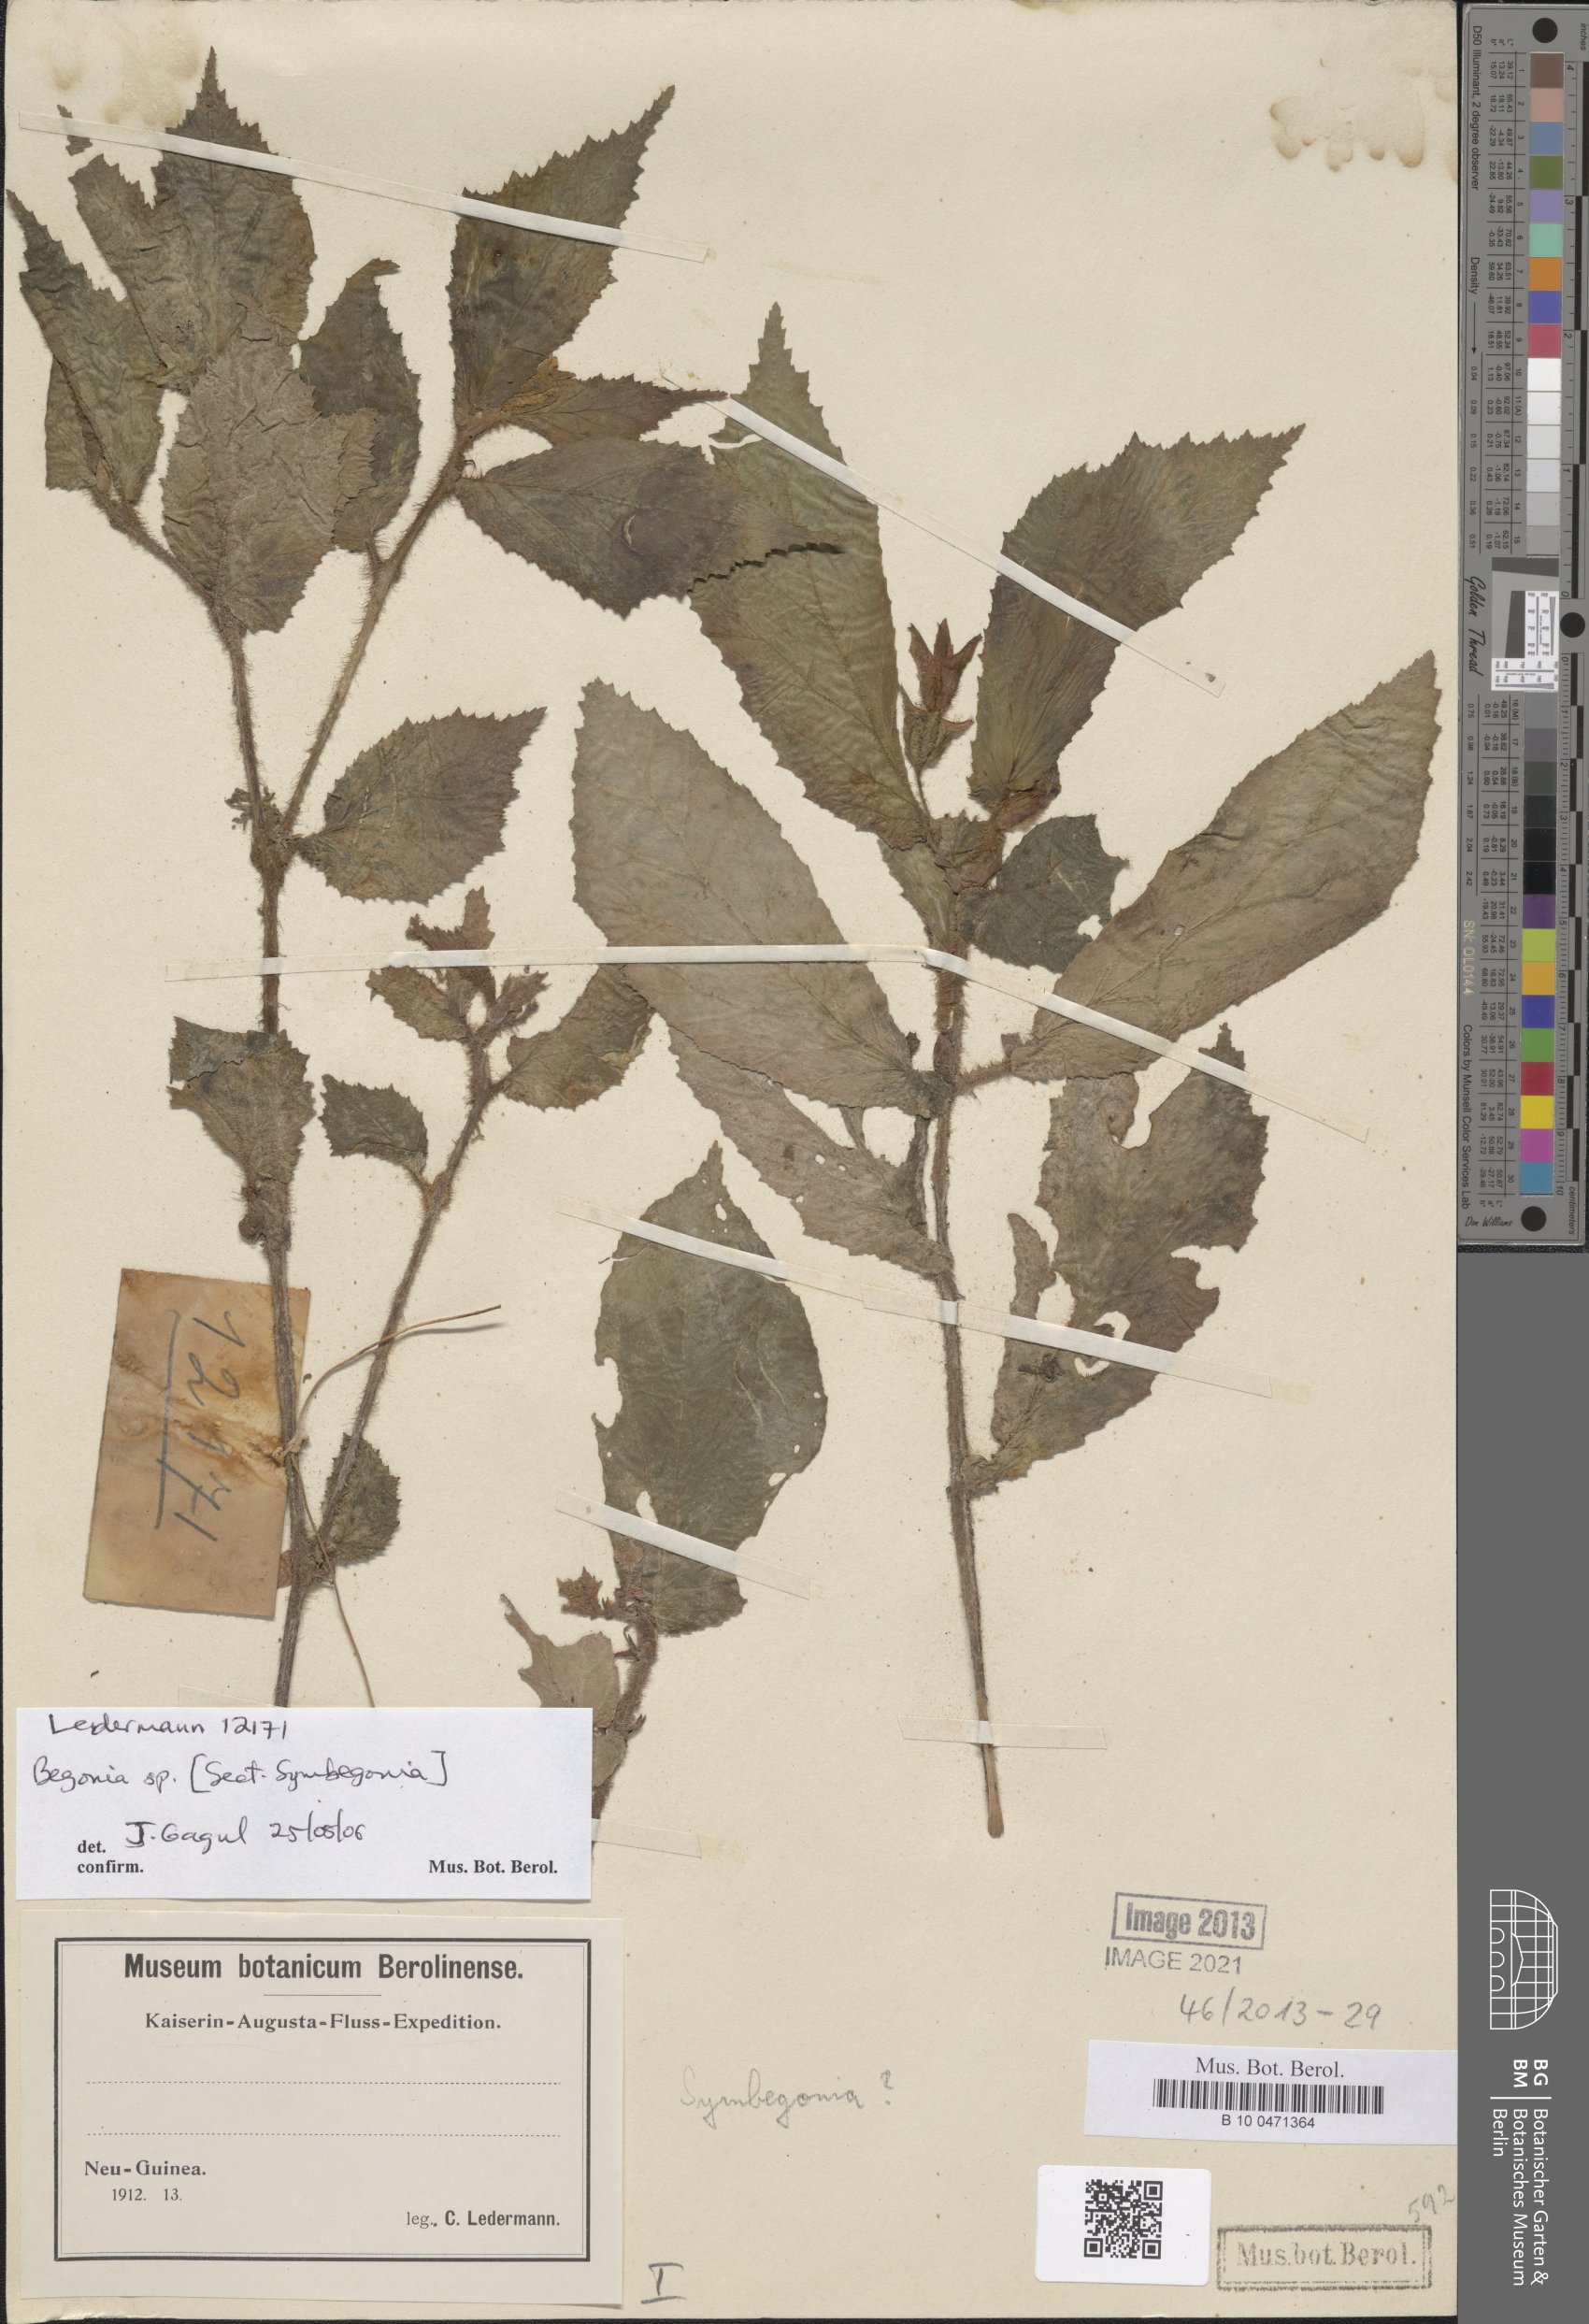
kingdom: Plantae
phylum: Tracheophyta
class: Magnoliopsida
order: Cucurbitales
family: Begoniaceae
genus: Begonia
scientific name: Begonia
